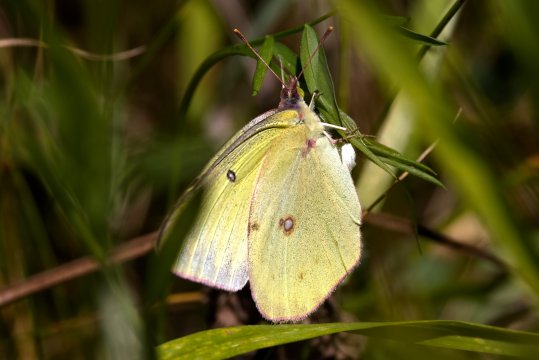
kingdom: Animalia
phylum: Arthropoda
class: Insecta
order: Lepidoptera
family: Pieridae
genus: Colias
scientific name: Colias philodice
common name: Clouded Sulphur
